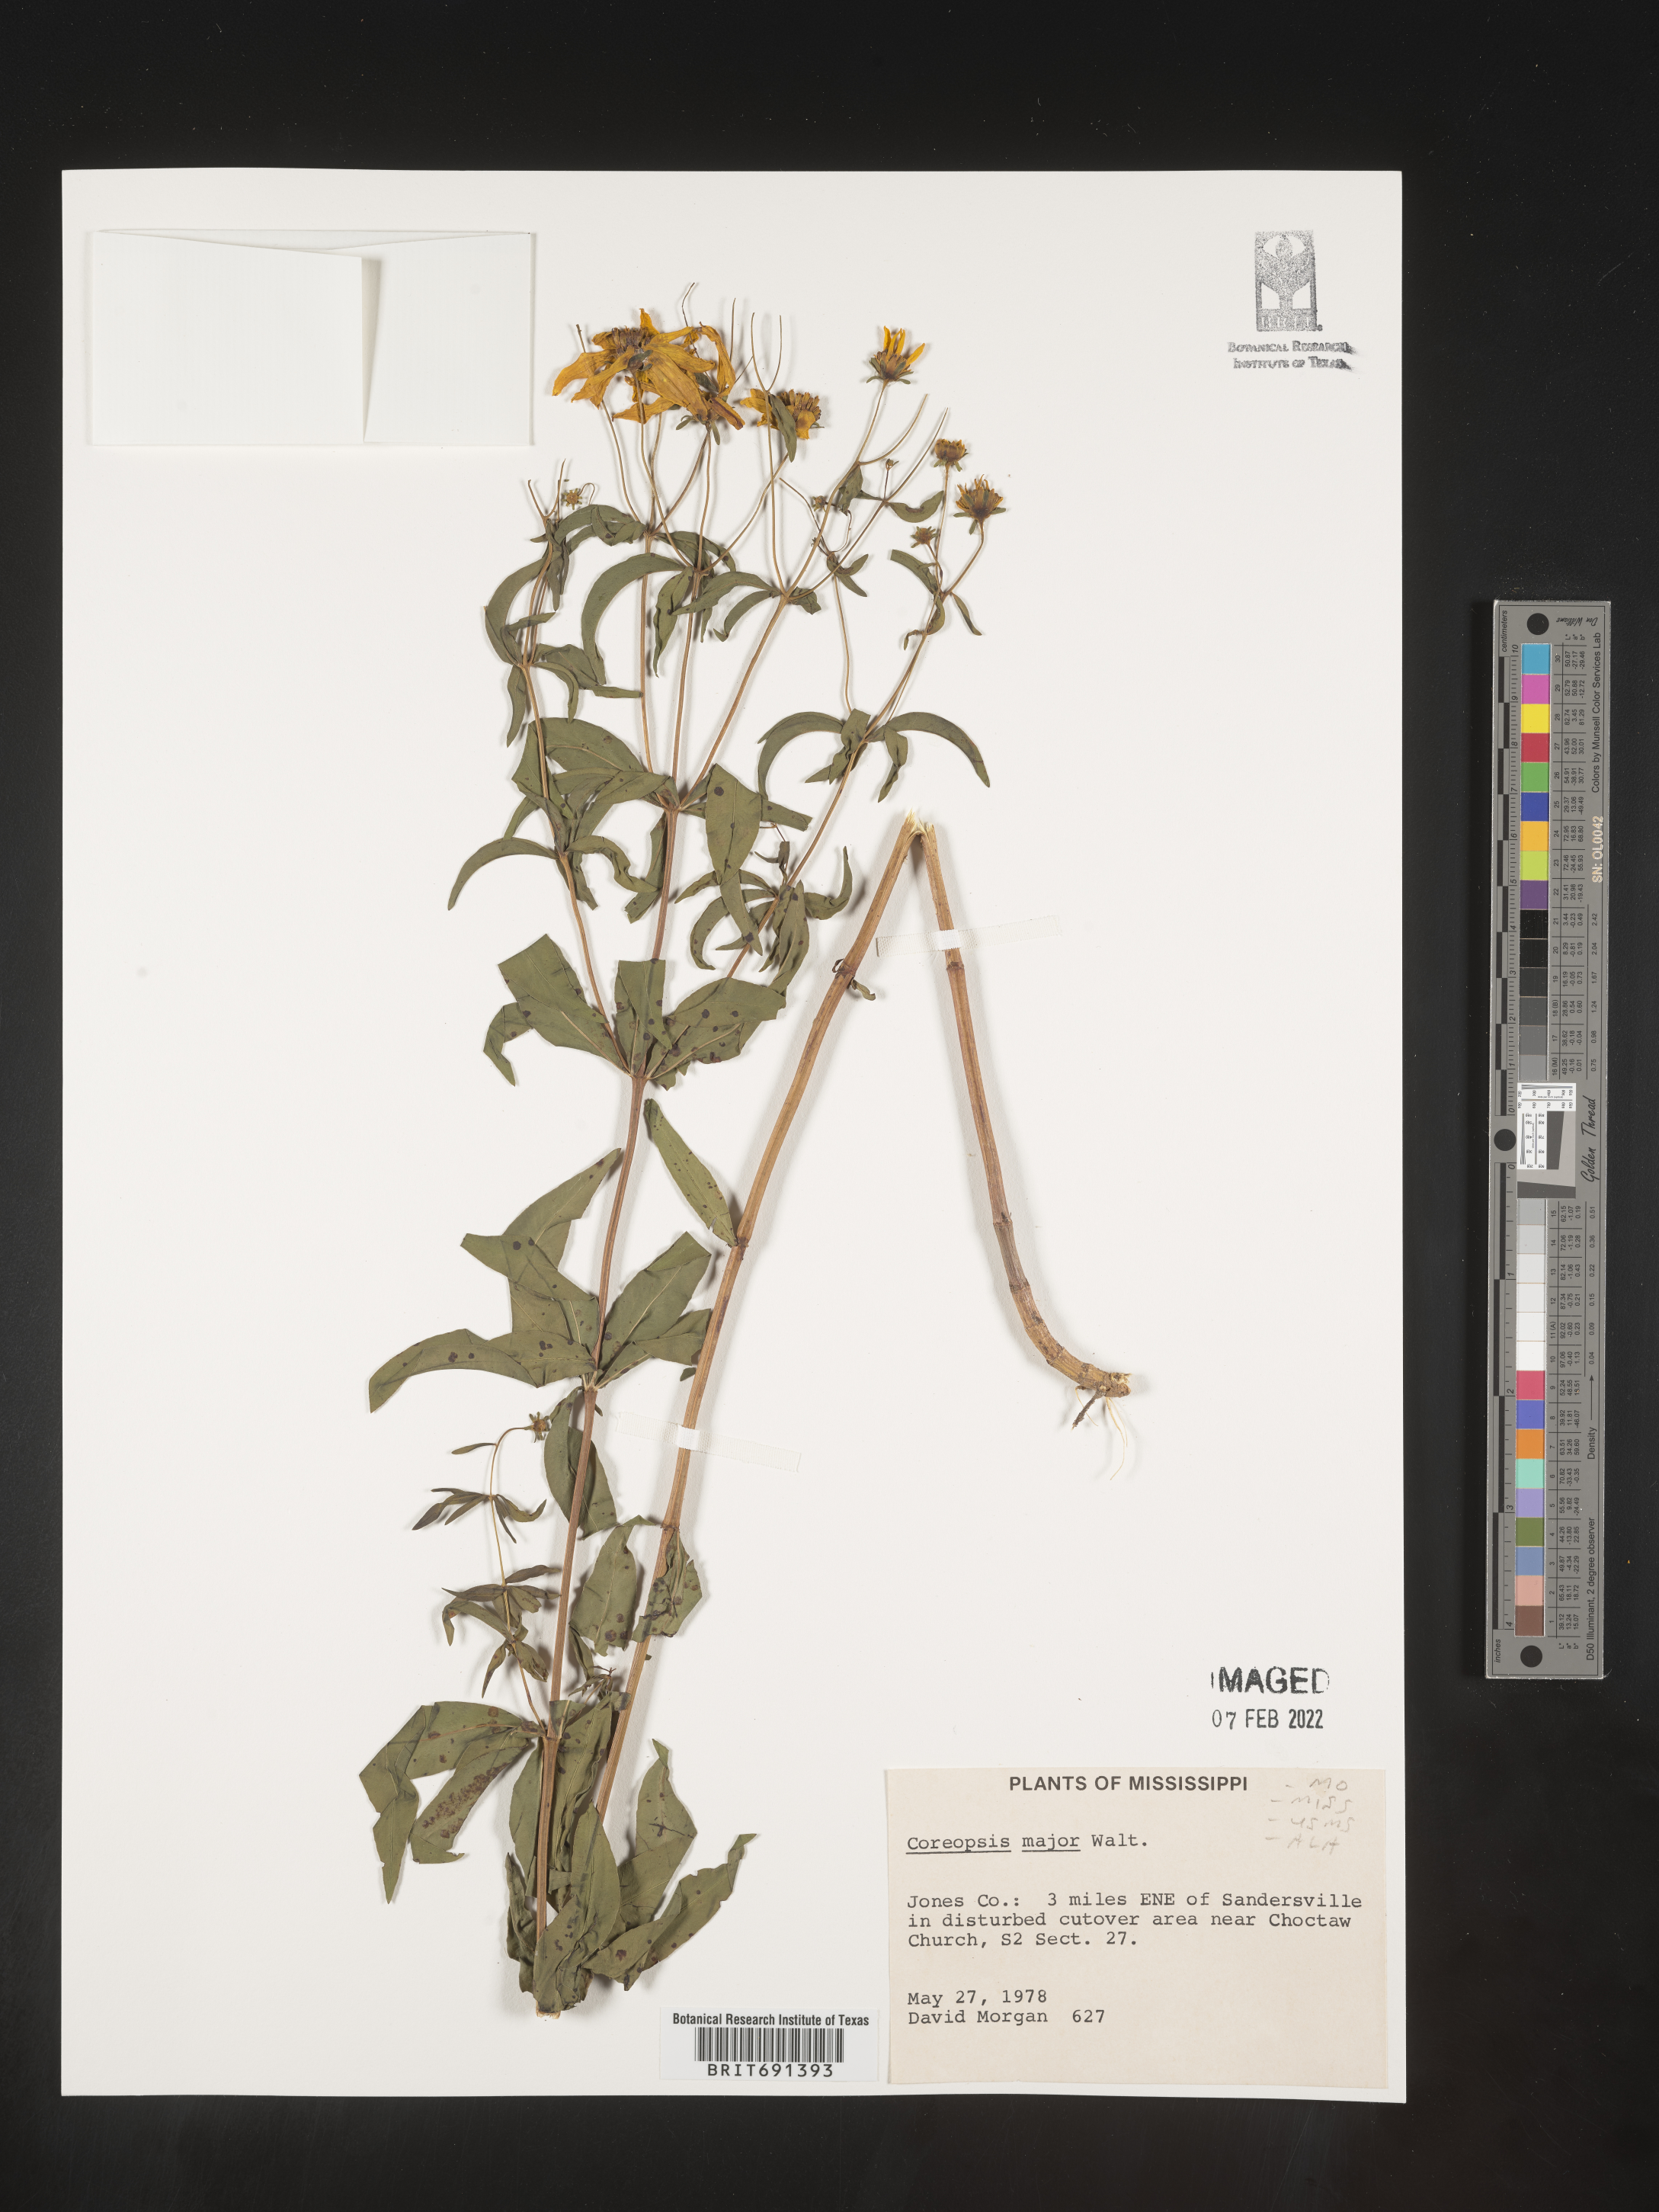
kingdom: Plantae
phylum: Tracheophyta
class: Magnoliopsida
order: Asterales
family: Asteraceae
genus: Coreopsis
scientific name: Coreopsis major
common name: Forest tickseed
